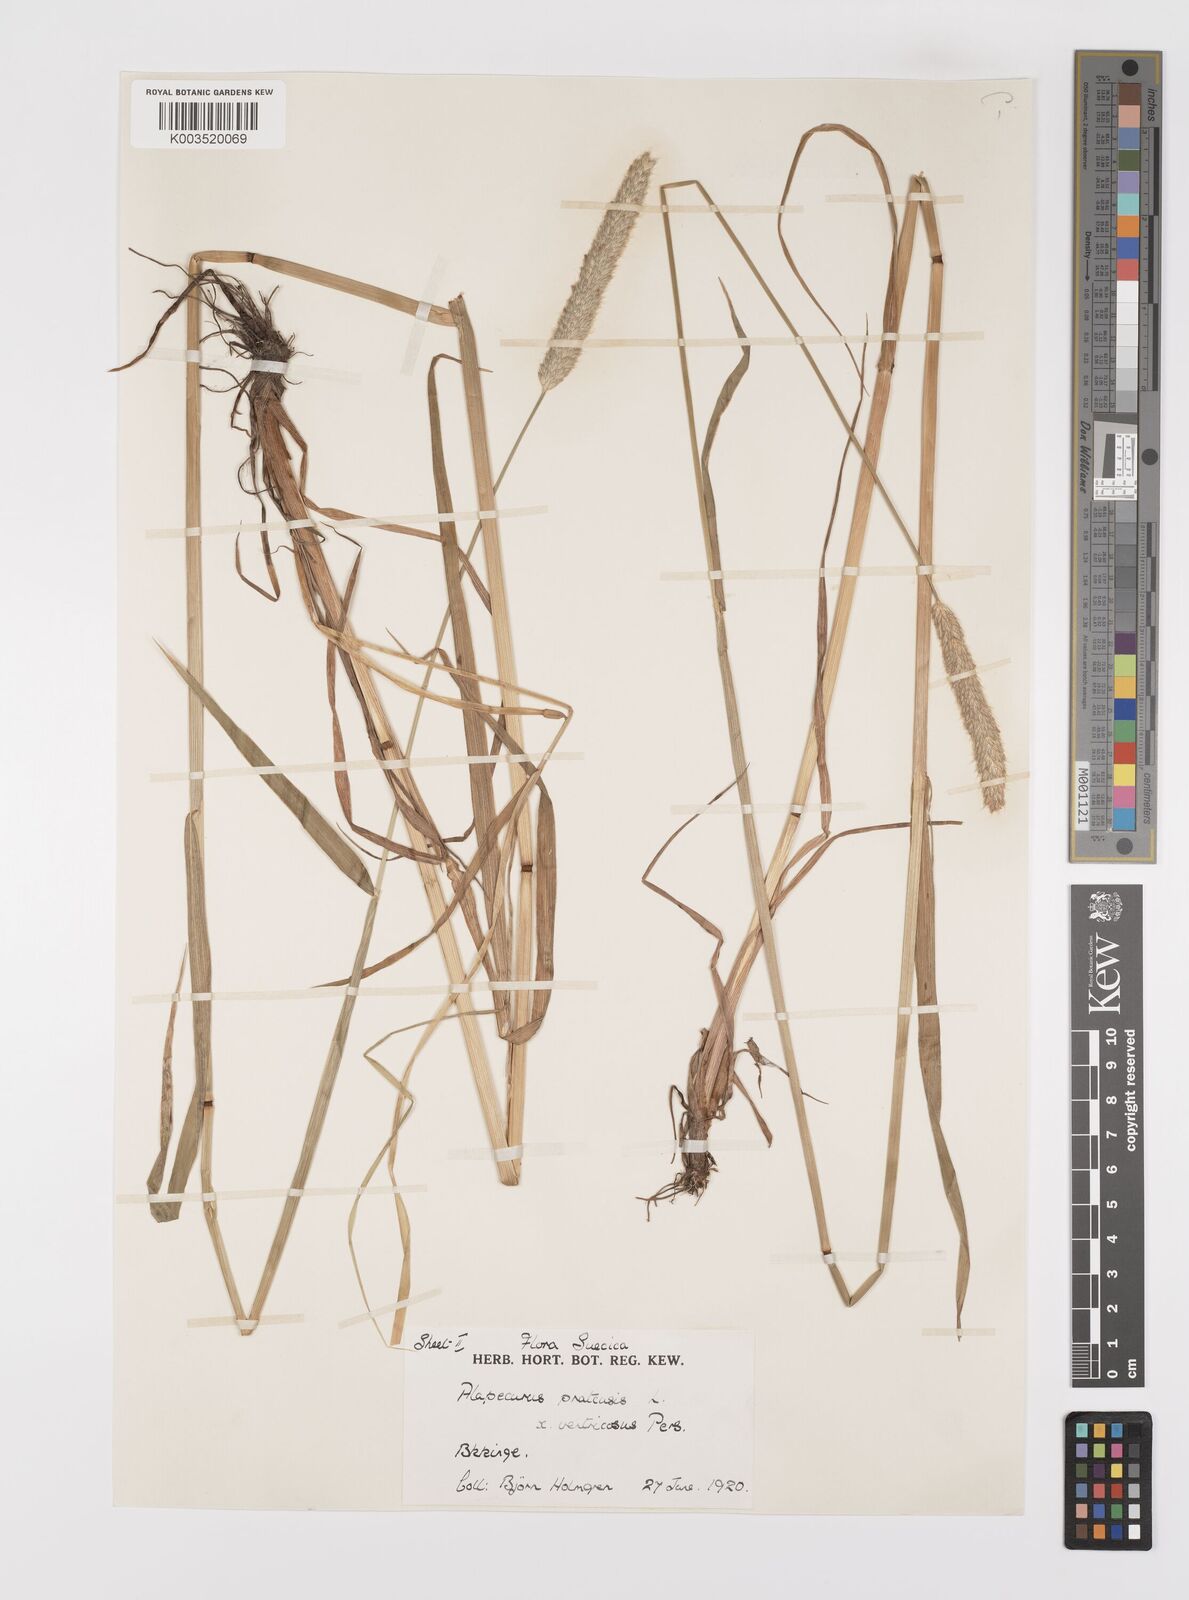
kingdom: Plantae
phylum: Tracheophyta
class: Liliopsida
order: Poales
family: Poaceae
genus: Alopecurus
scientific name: Alopecurus arundinaceus
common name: Creeping meadow foxtail
